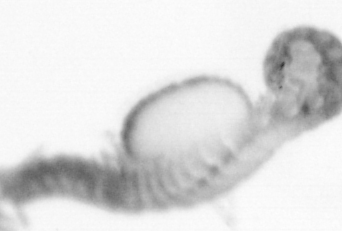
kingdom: Animalia
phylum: Annelida
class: Polychaeta
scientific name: Polychaeta
